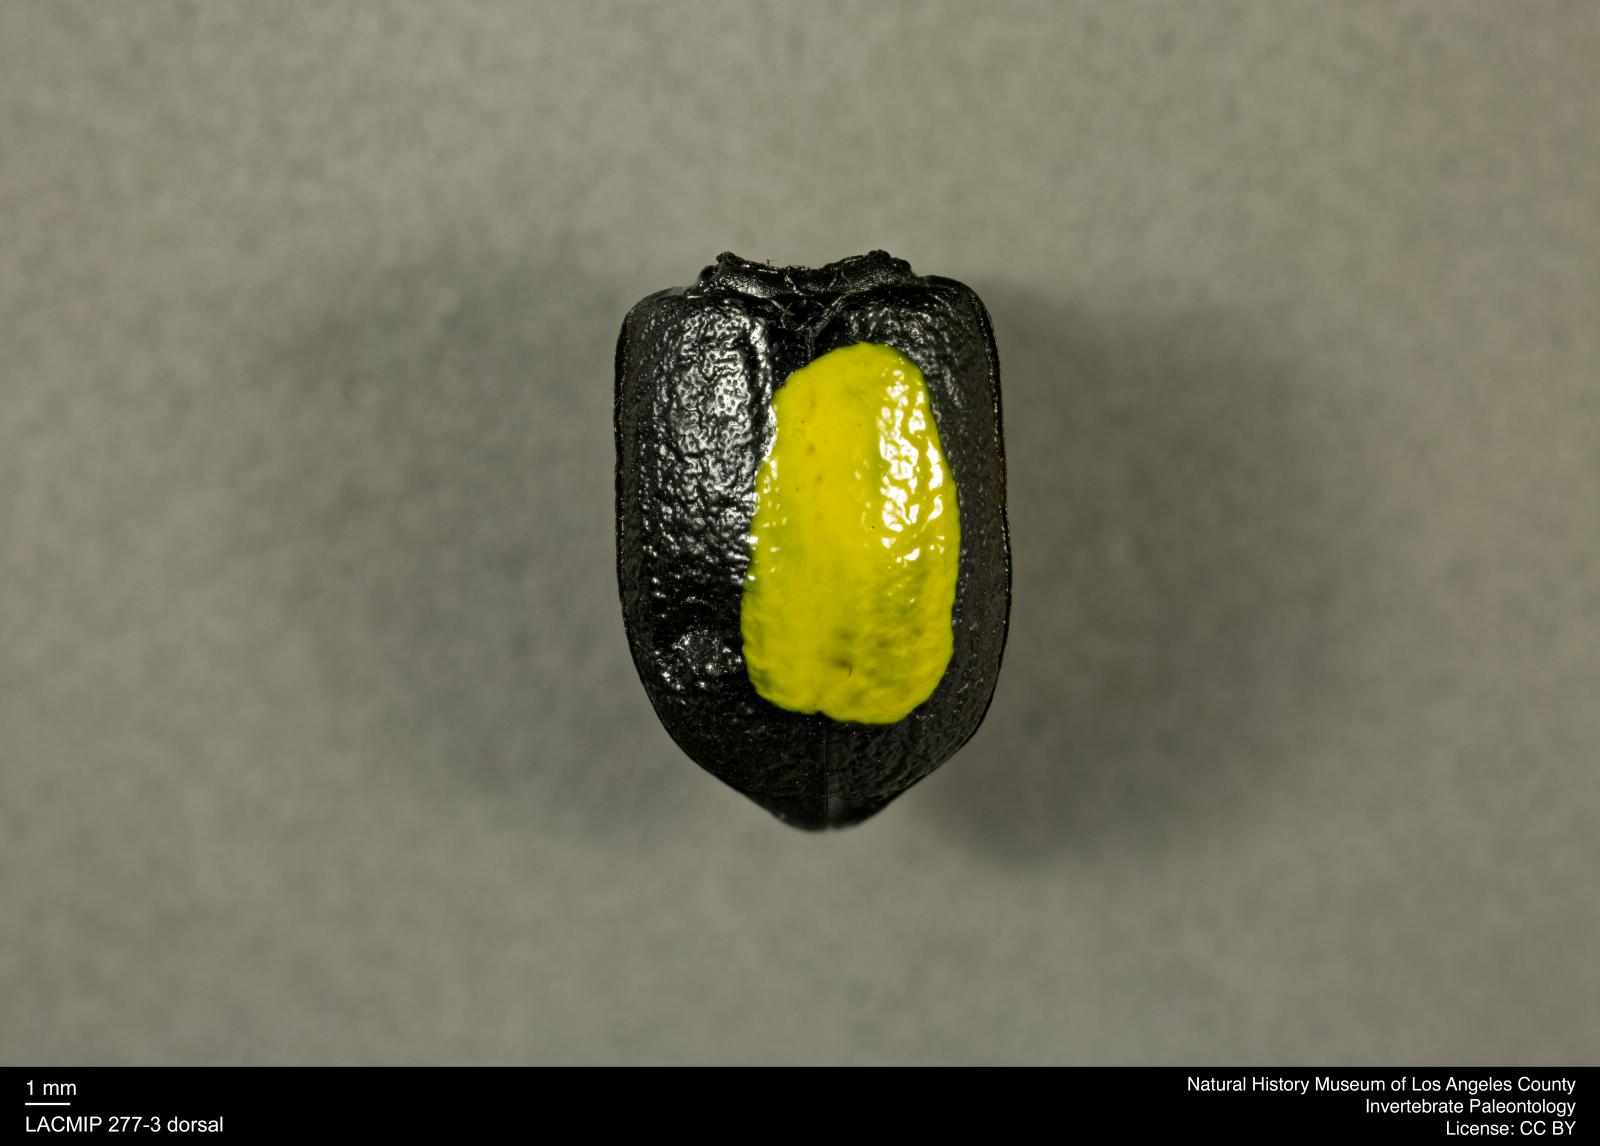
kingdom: Animalia
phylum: Arthropoda
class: Insecta
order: Coleoptera
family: Tenebrionidae
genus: Coniontis
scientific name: Coniontis abdominalis
